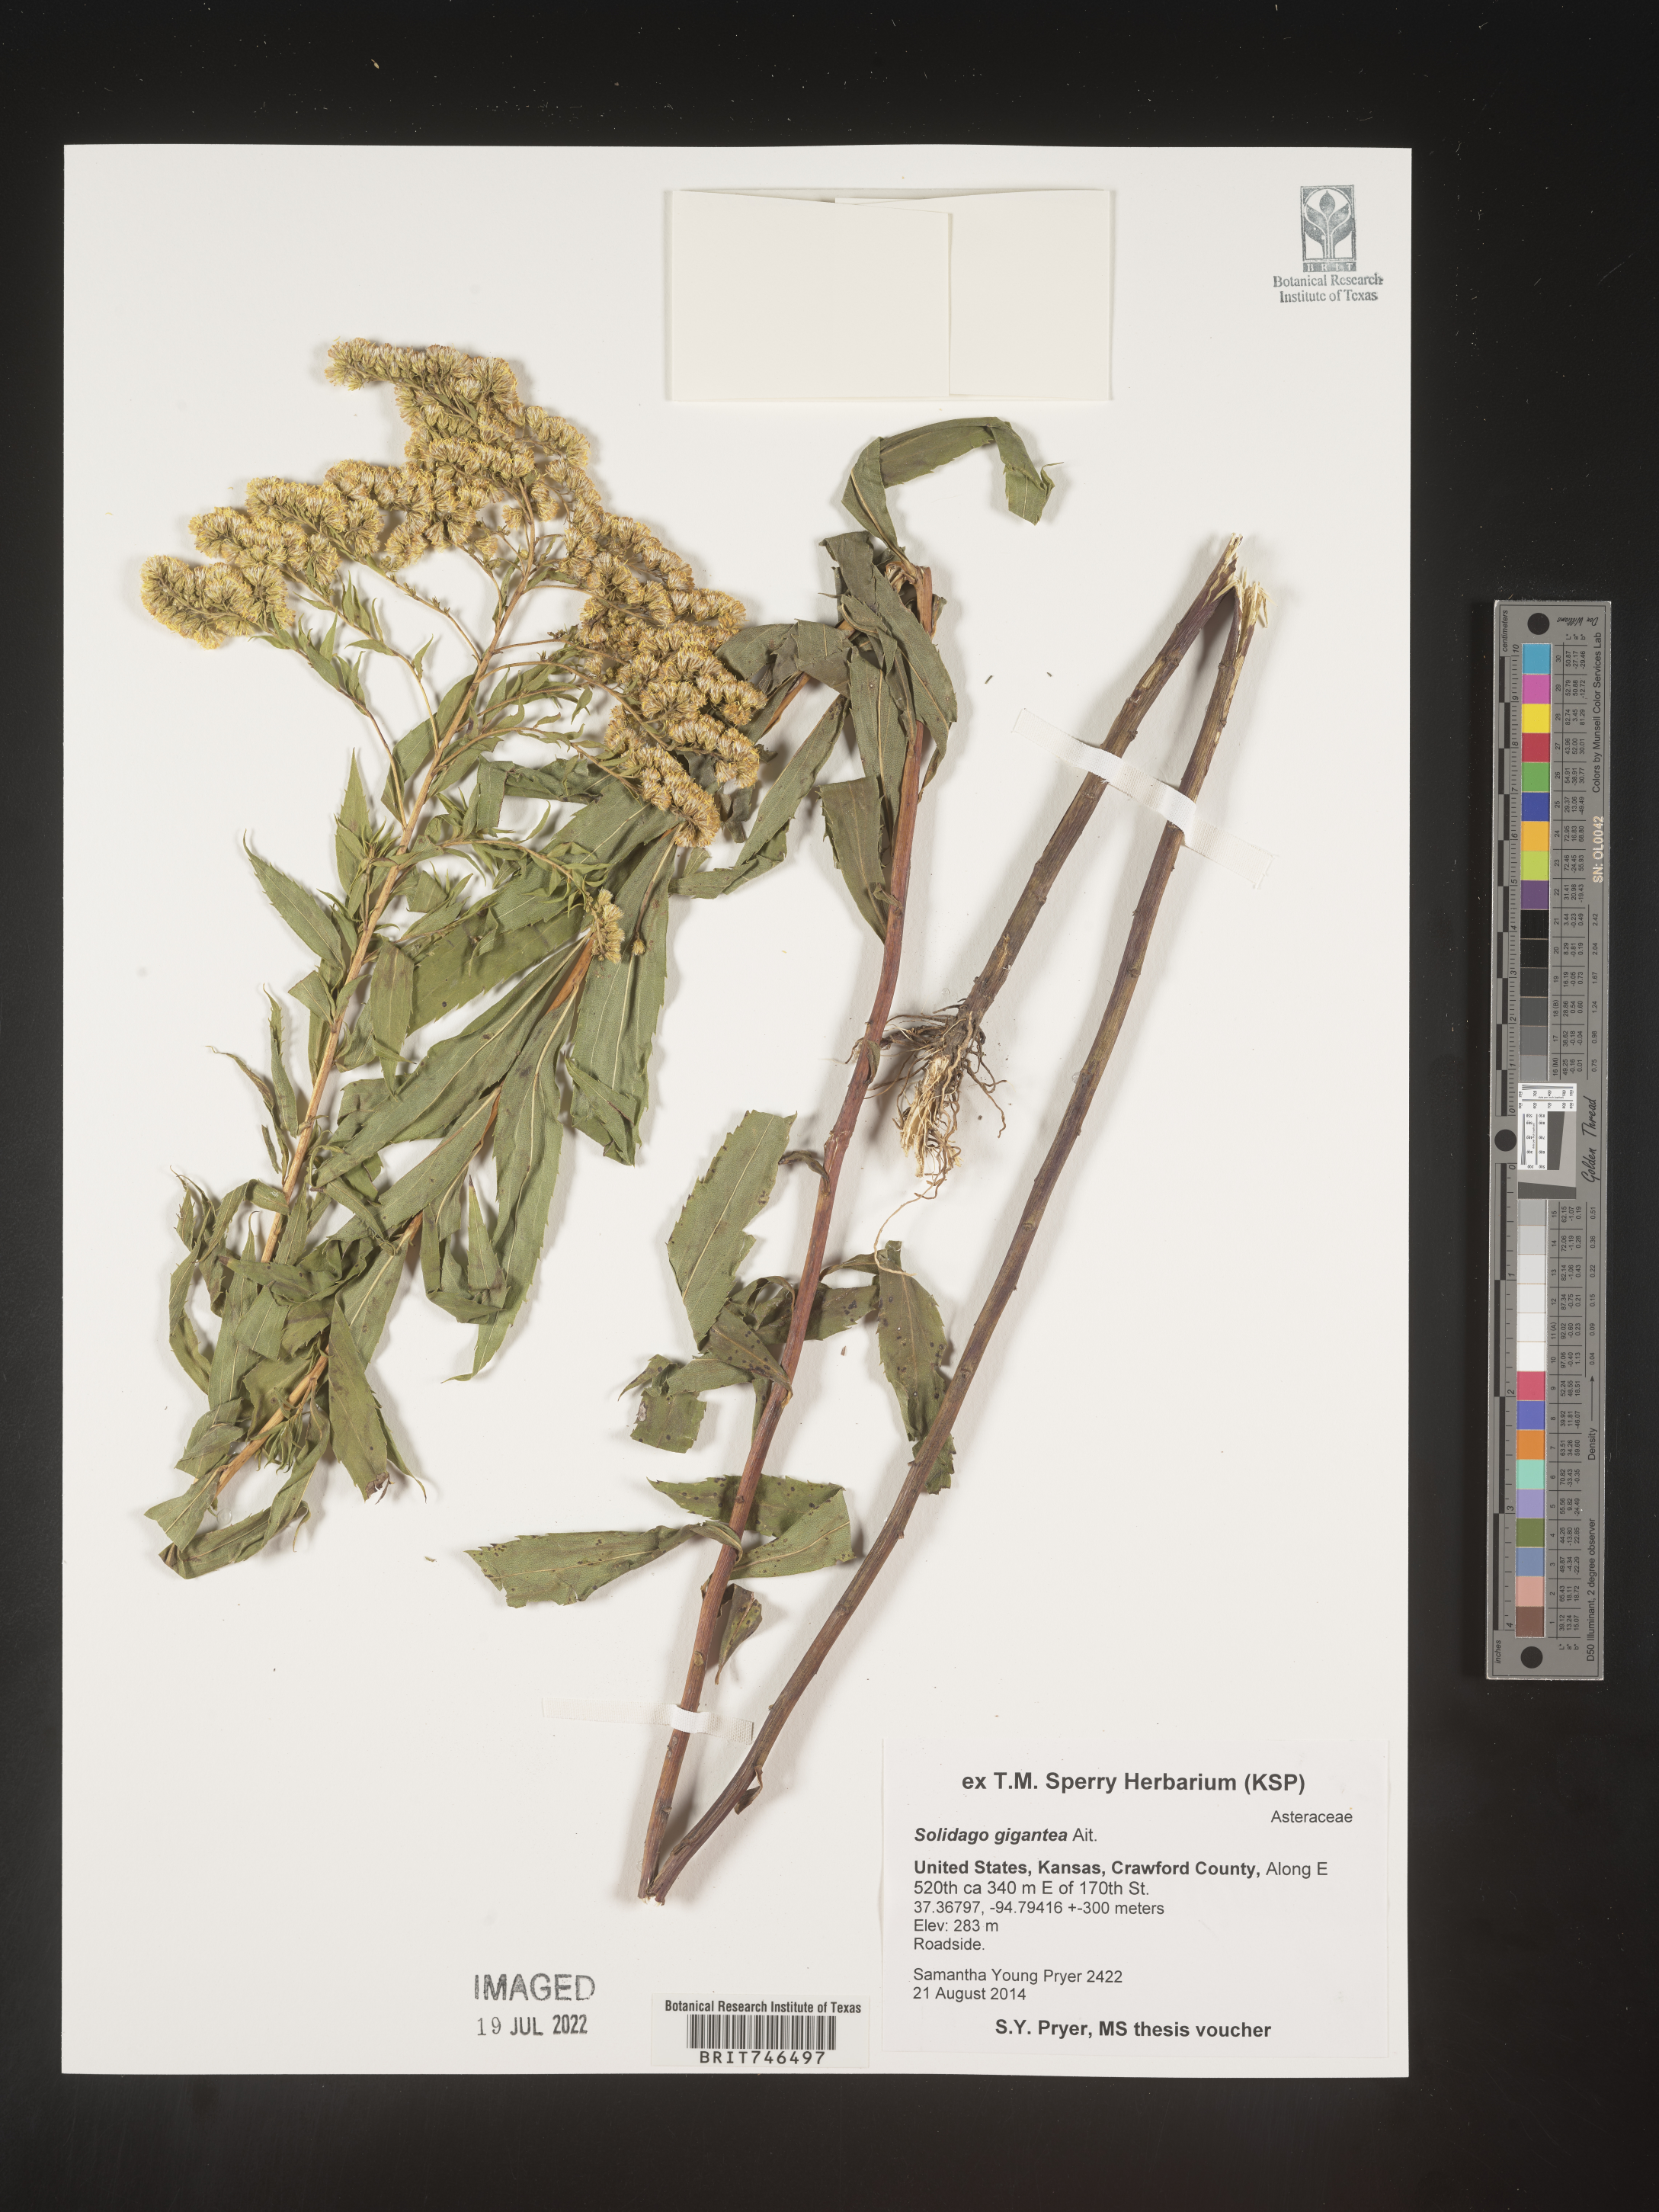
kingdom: Plantae
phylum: Tracheophyta
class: Magnoliopsida
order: Asterales
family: Asteraceae
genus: Solidago
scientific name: Solidago gigantea
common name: Giant goldenrod
